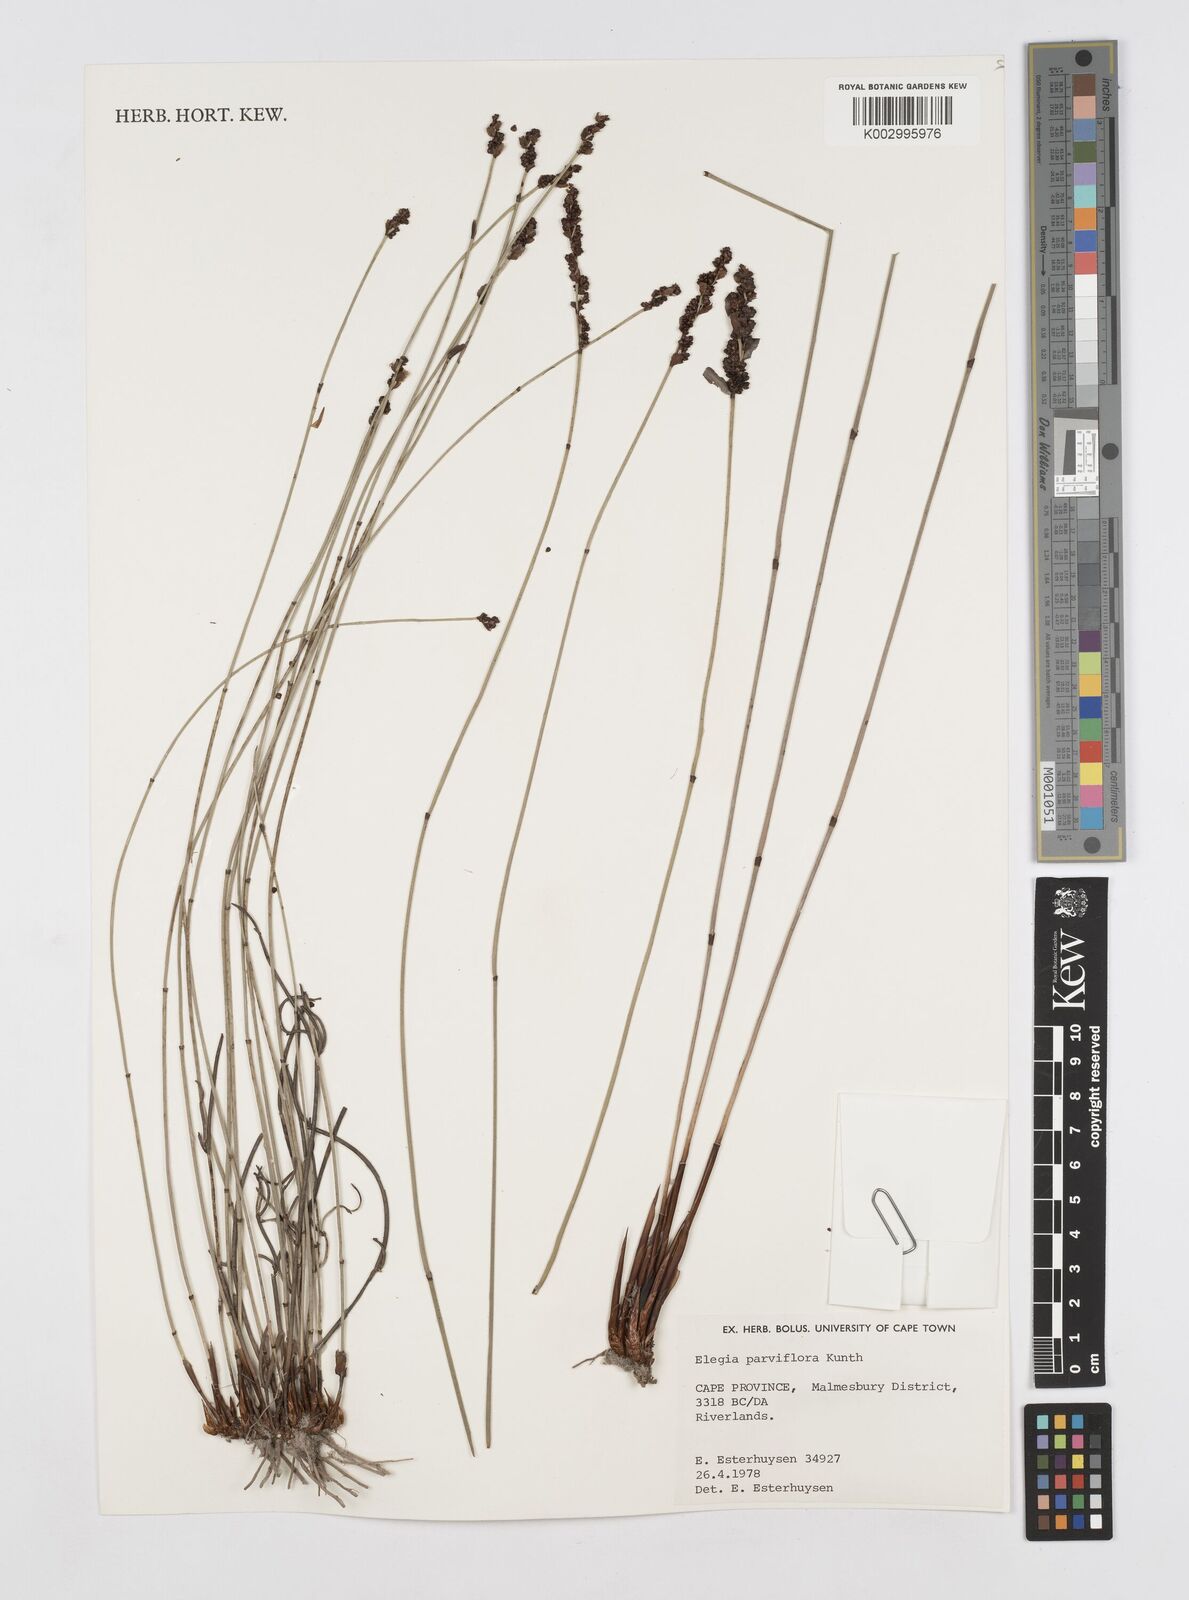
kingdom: Plantae
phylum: Tracheophyta
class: Liliopsida
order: Poales
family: Restionaceae
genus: Cannomois
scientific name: Cannomois parviflora
